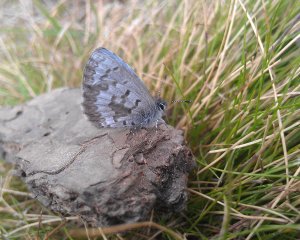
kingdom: Animalia
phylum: Arthropoda
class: Insecta
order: Lepidoptera
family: Lycaenidae
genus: Celastrina
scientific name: Celastrina lucia
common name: Northern Spring Azure
